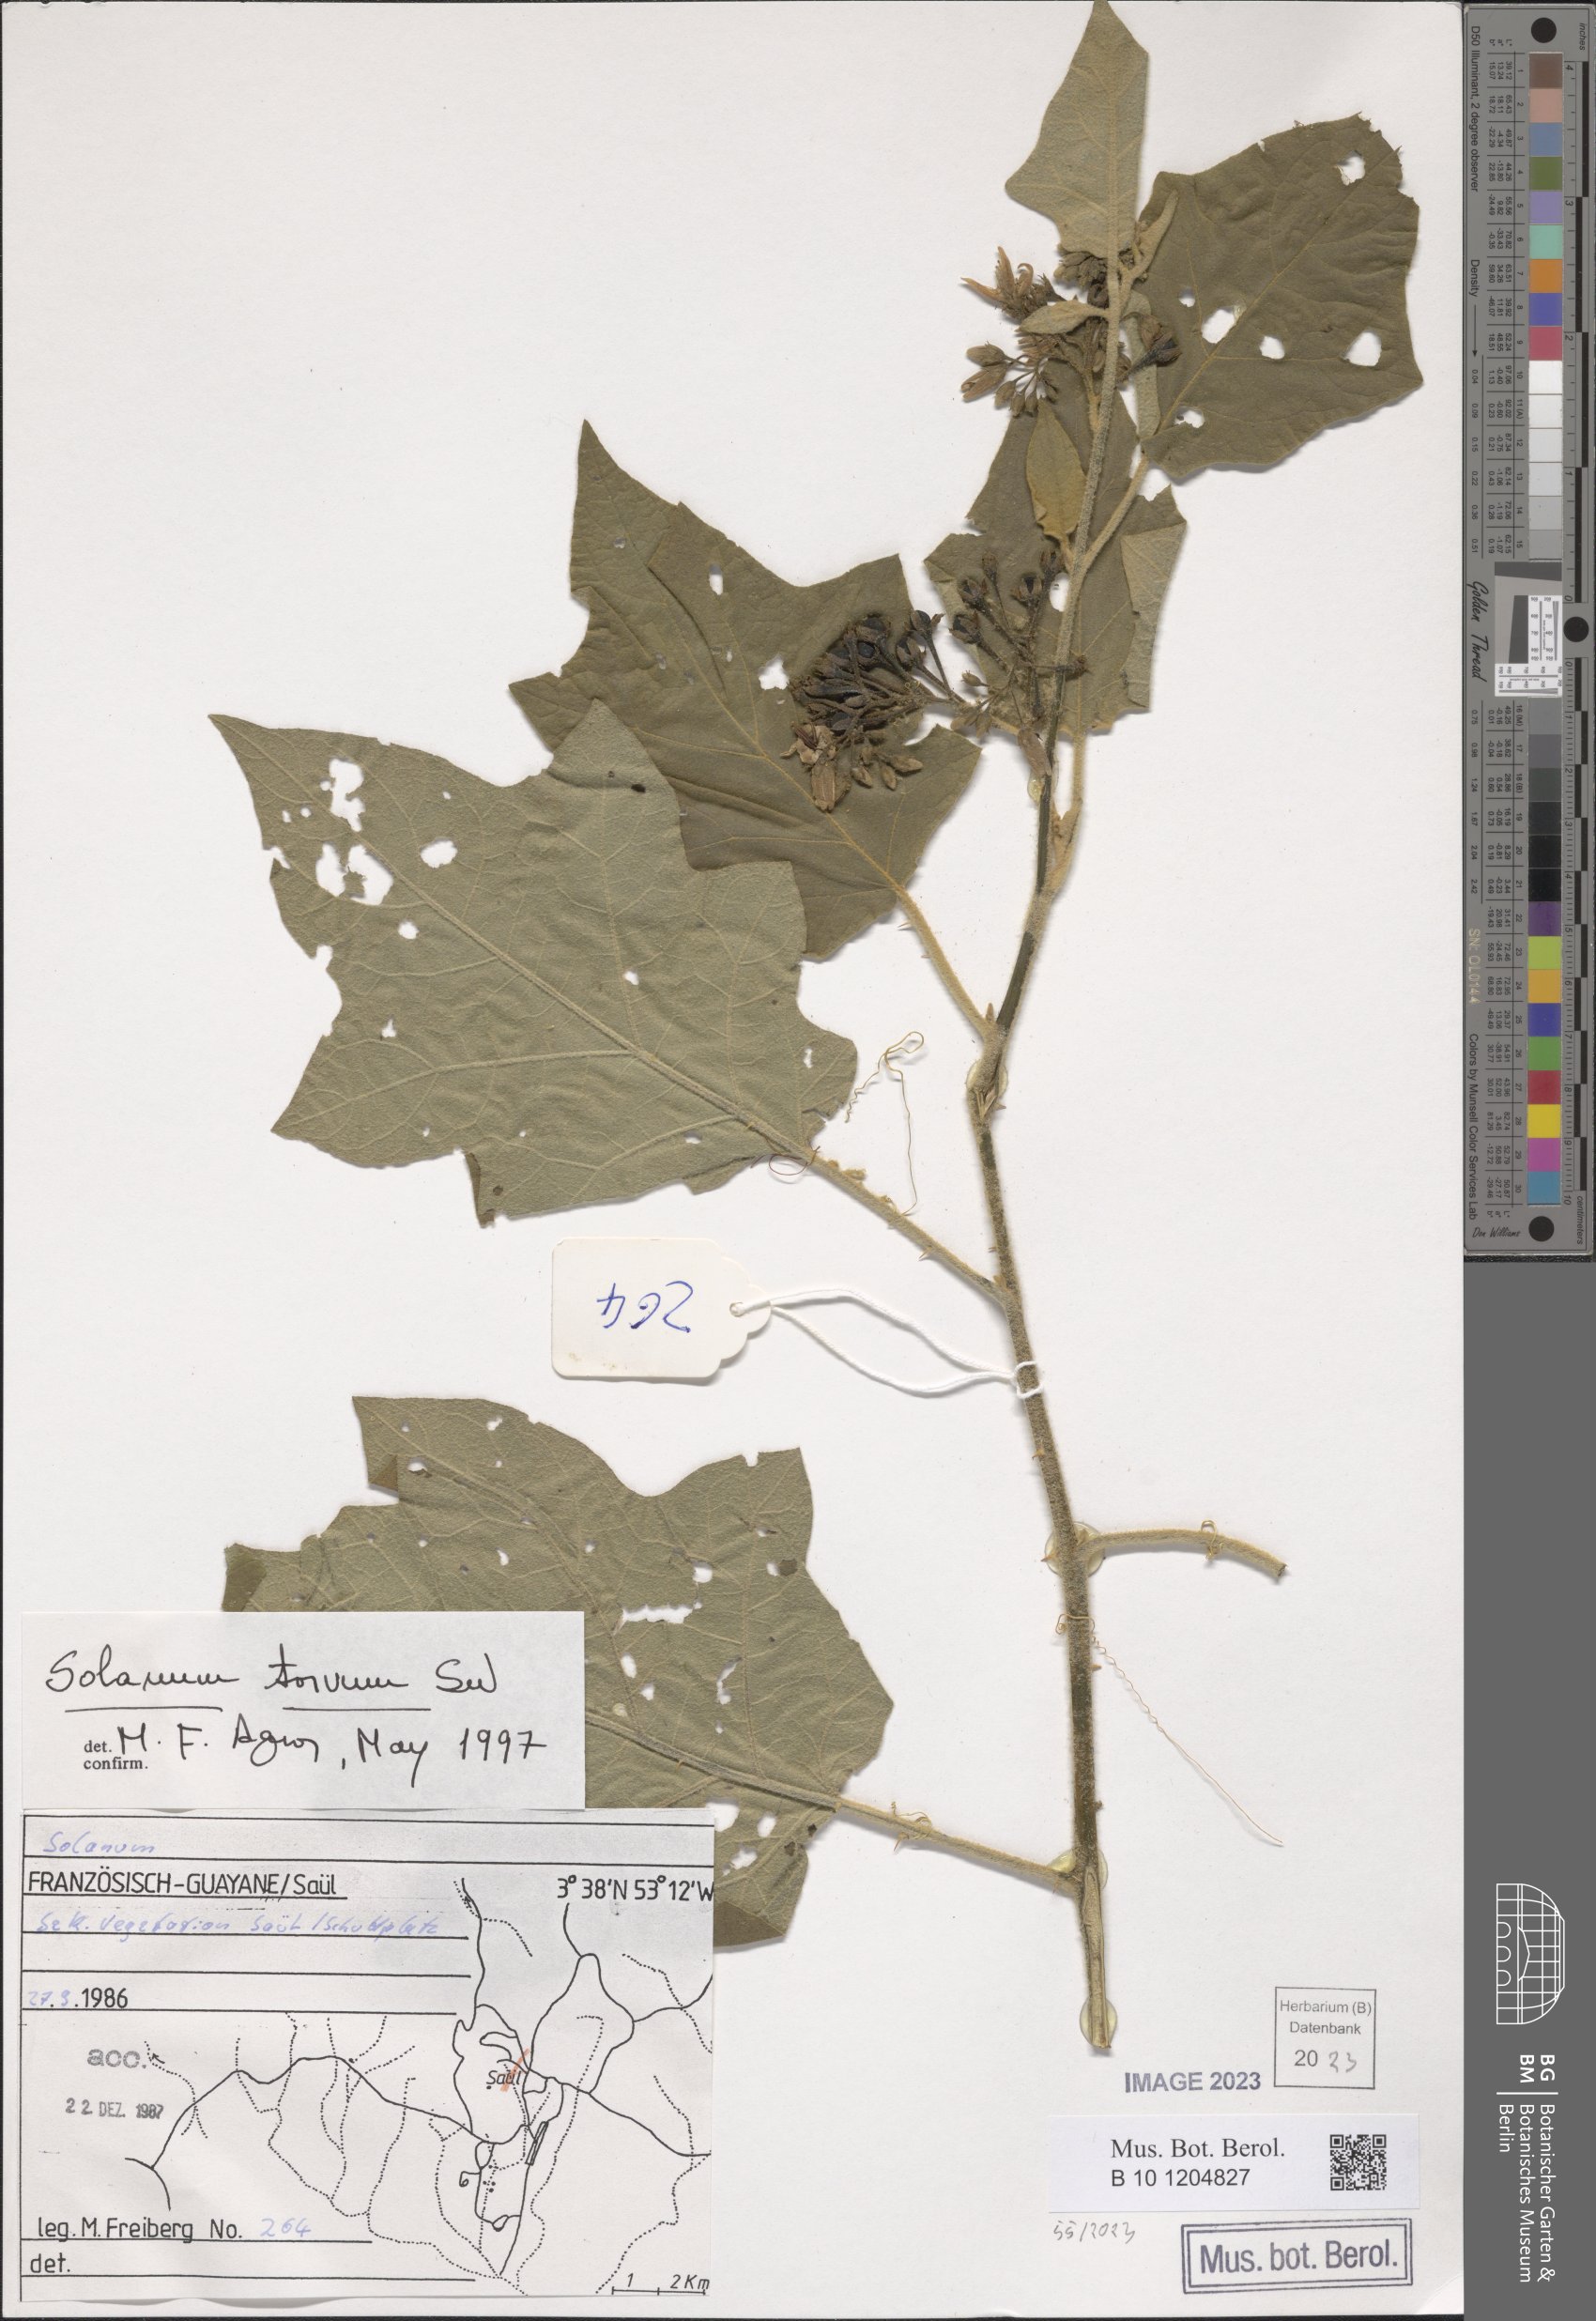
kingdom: Plantae
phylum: Tracheophyta
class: Magnoliopsida
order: Solanales
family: Solanaceae
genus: Solanum
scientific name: Solanum torvum
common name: Turkey berry
